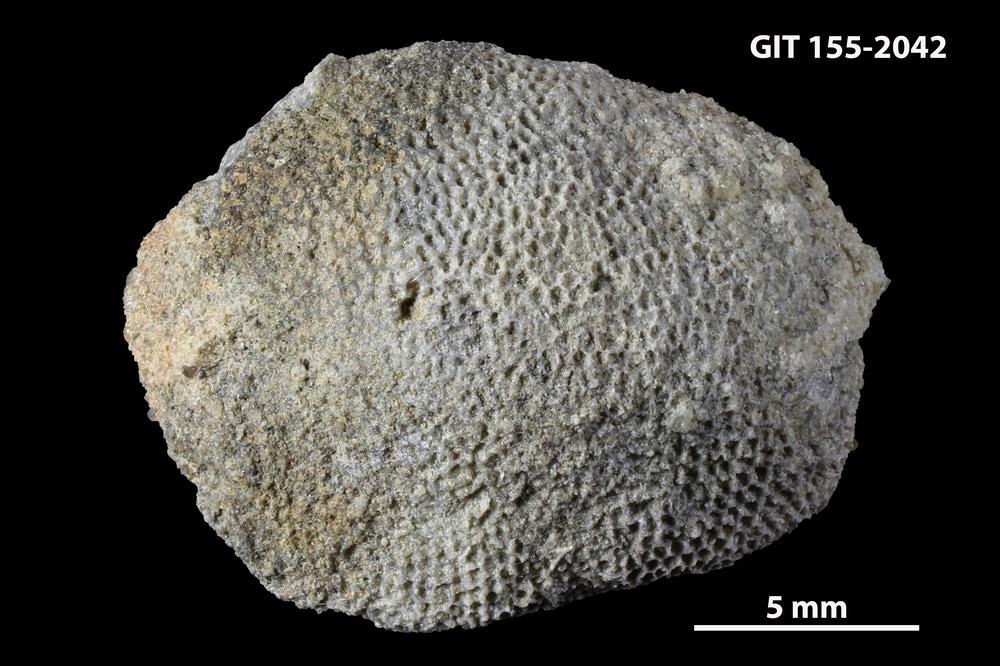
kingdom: Animalia
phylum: Bryozoa
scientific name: Bryozoa
